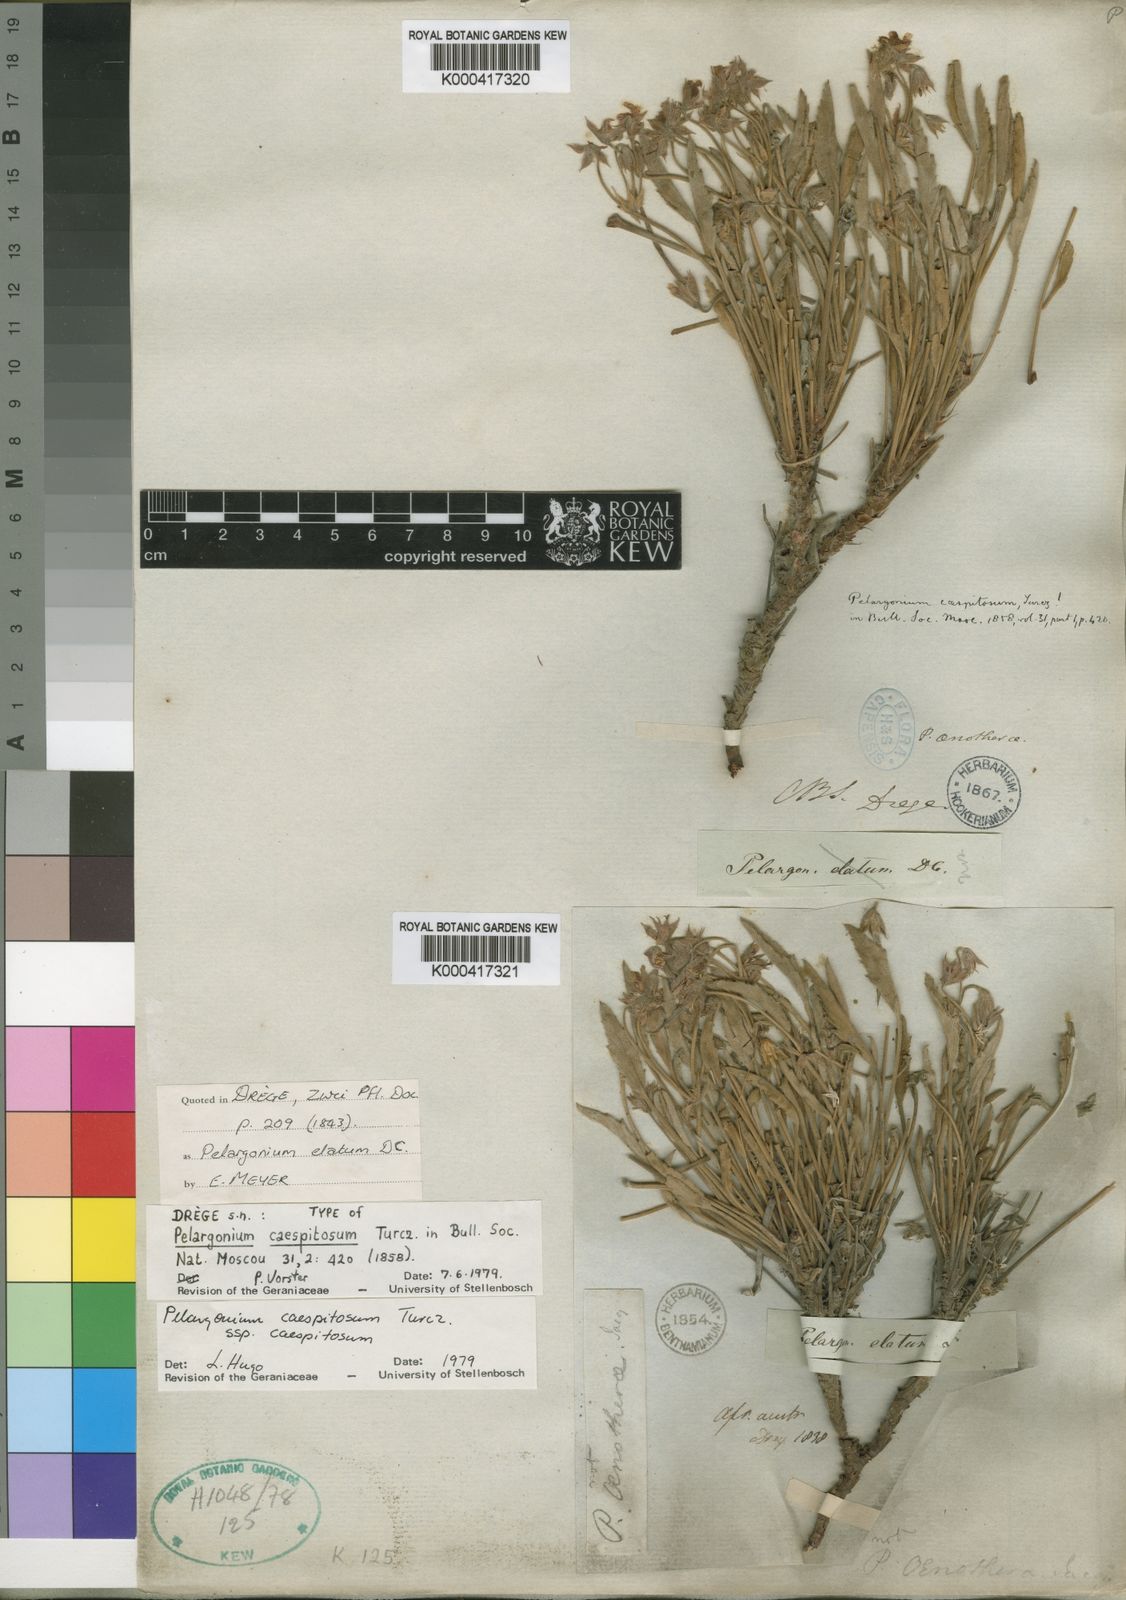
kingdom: Plantae
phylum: Tracheophyta
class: Magnoliopsida
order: Geraniales
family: Geraniaceae
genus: Pelargonium
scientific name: Pelargonium caespitosum
